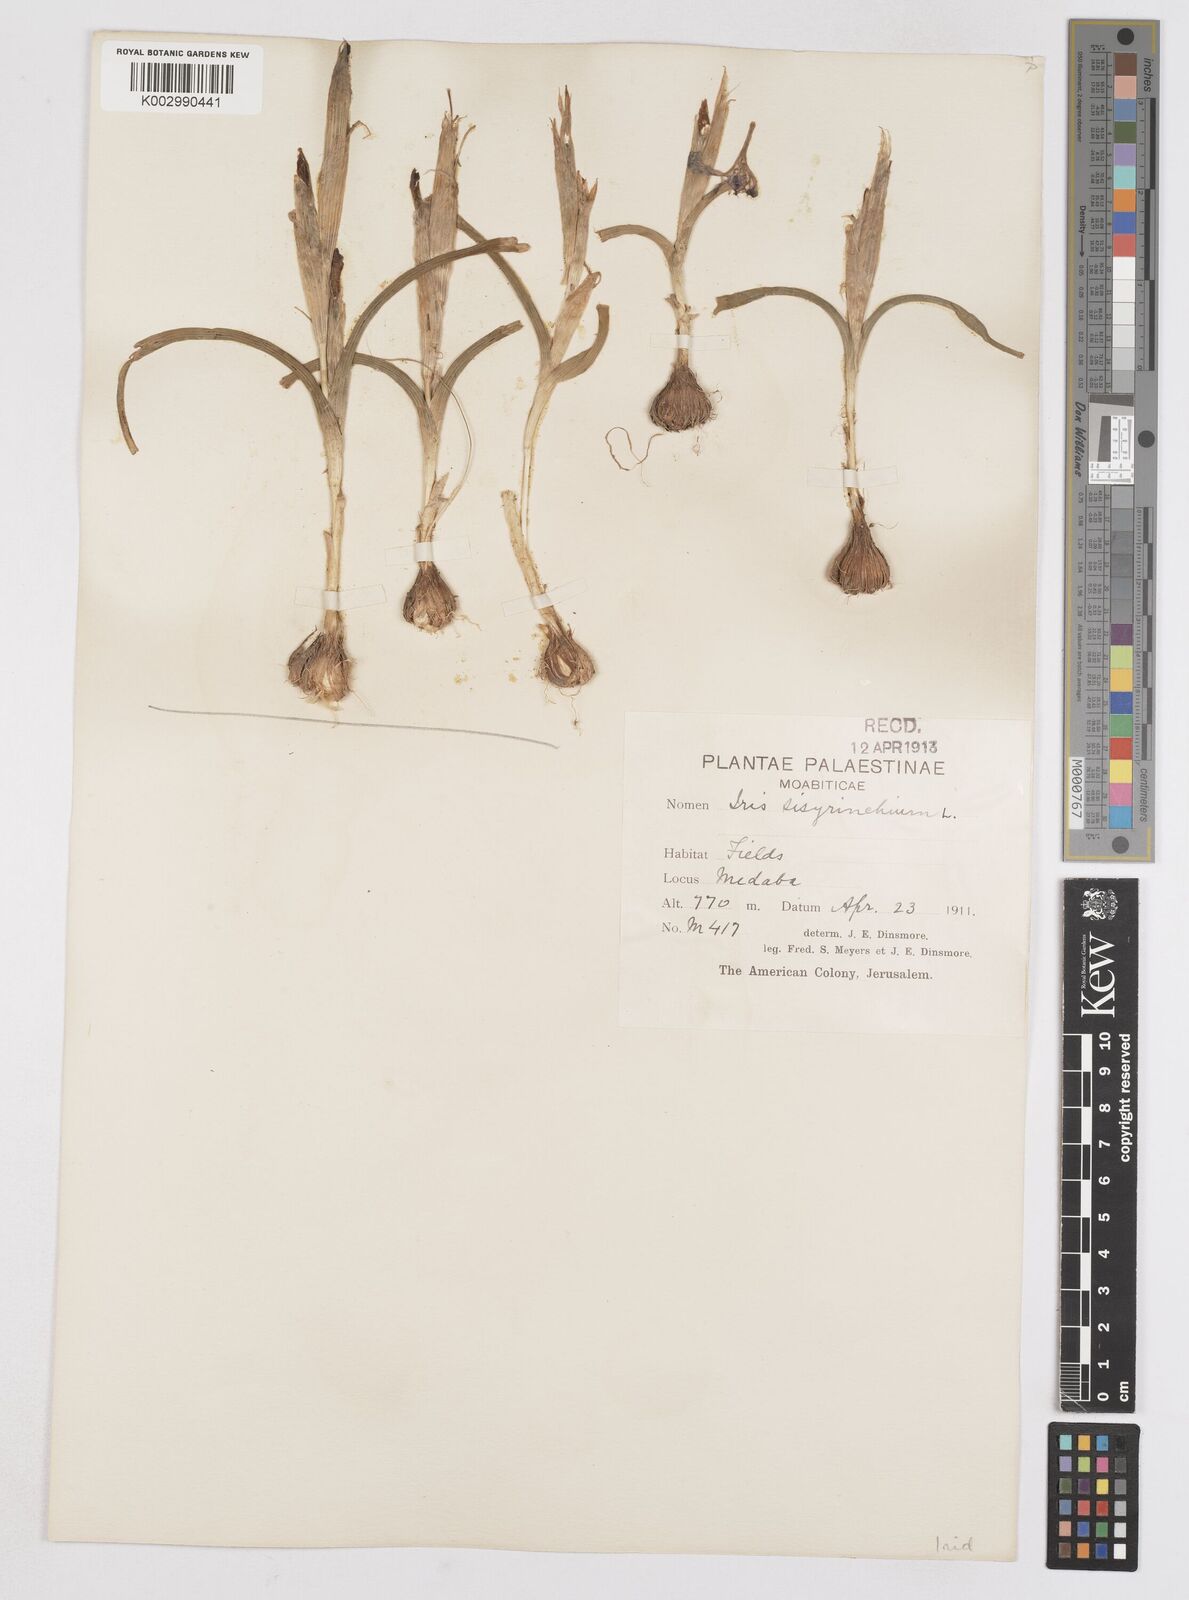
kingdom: Plantae
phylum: Tracheophyta
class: Liliopsida
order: Asparagales
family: Iridaceae
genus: Moraea
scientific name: Moraea sisyrinchium
